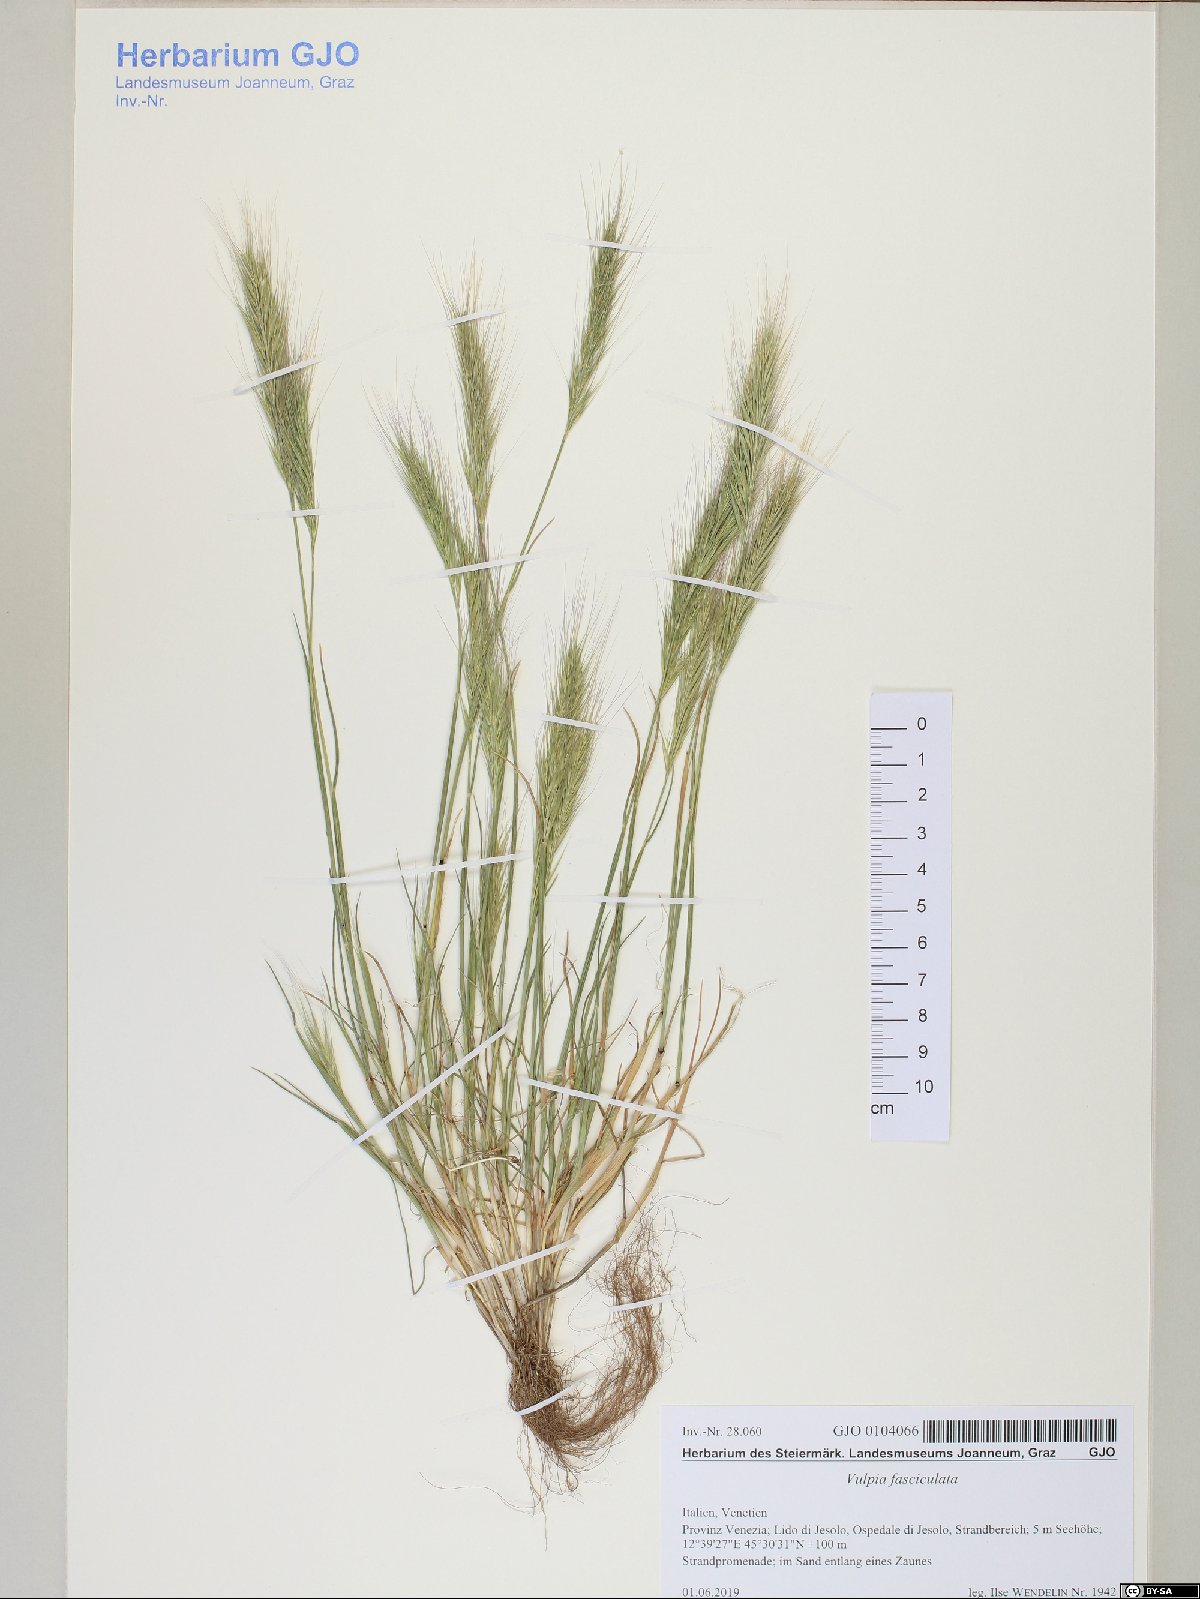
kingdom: Plantae
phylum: Tracheophyta
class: Liliopsida
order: Poales
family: Poaceae
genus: Festuca
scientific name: Festuca fasciculata
